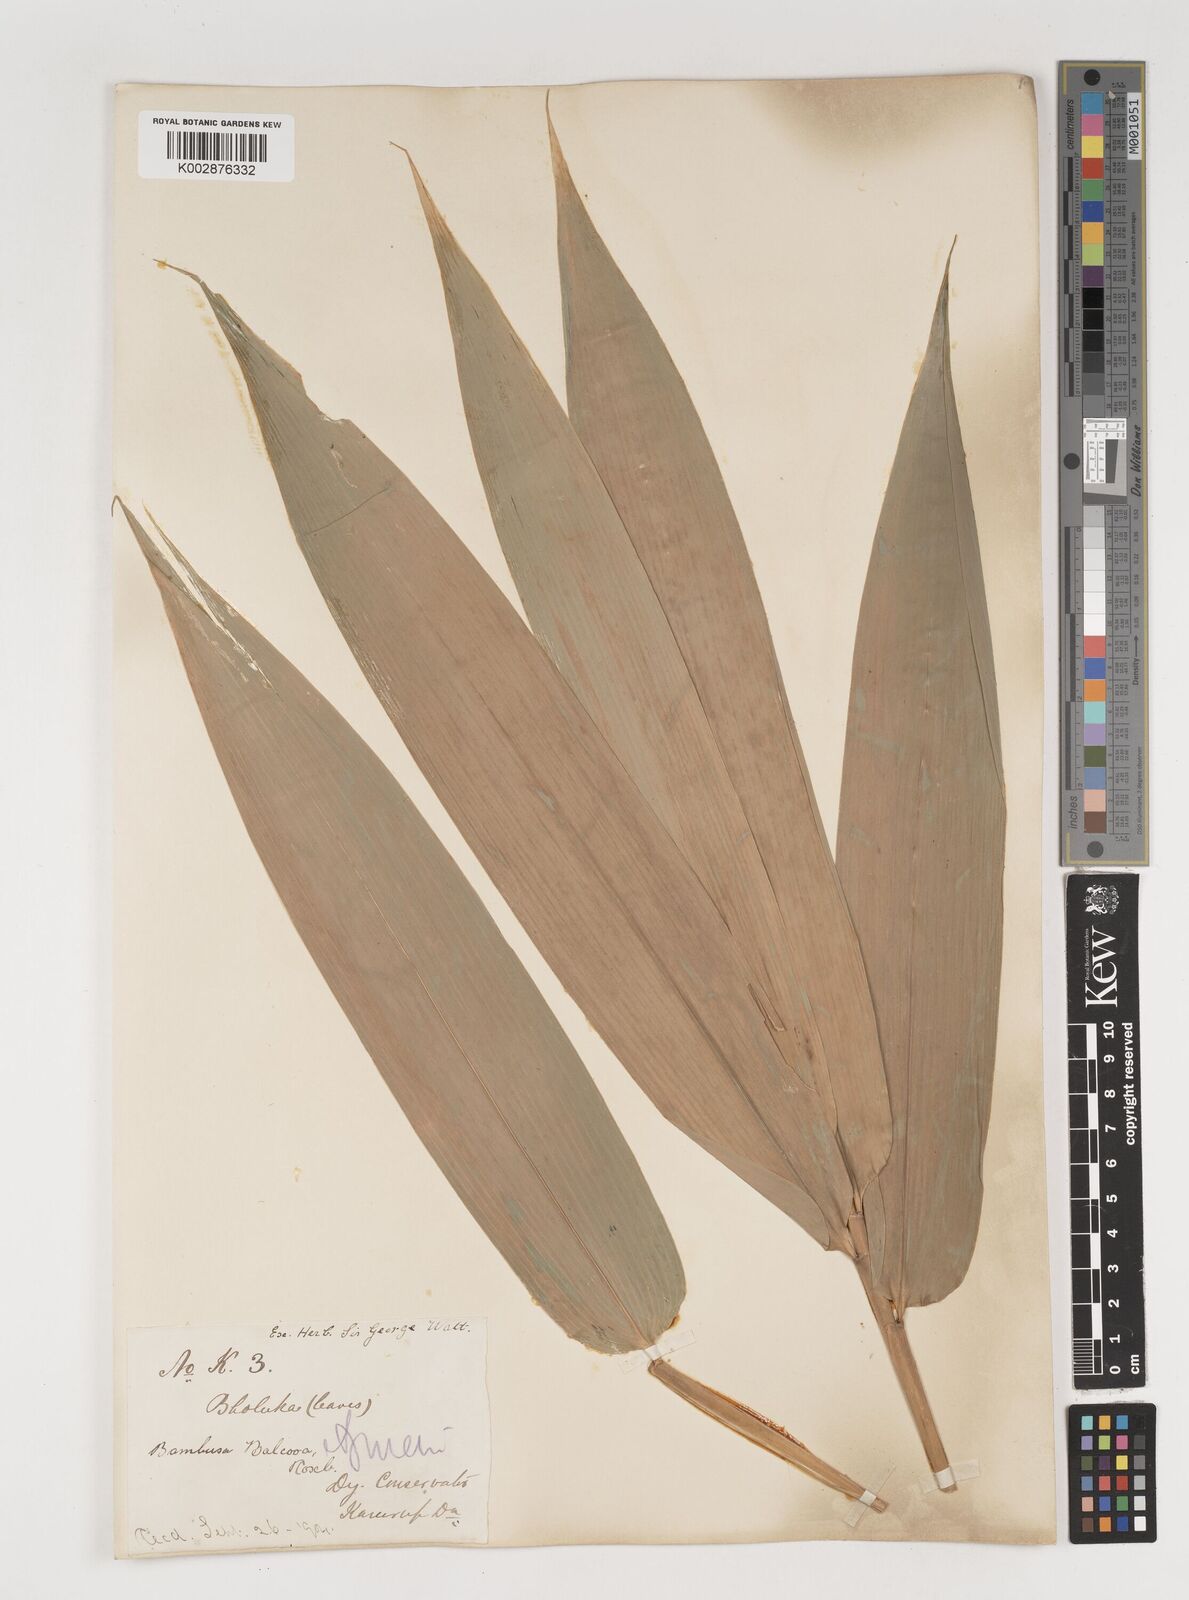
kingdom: Plantae
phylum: Tracheophyta
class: Liliopsida
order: Poales
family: Poaceae
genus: Bambusa
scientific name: Bambusa balcooa
